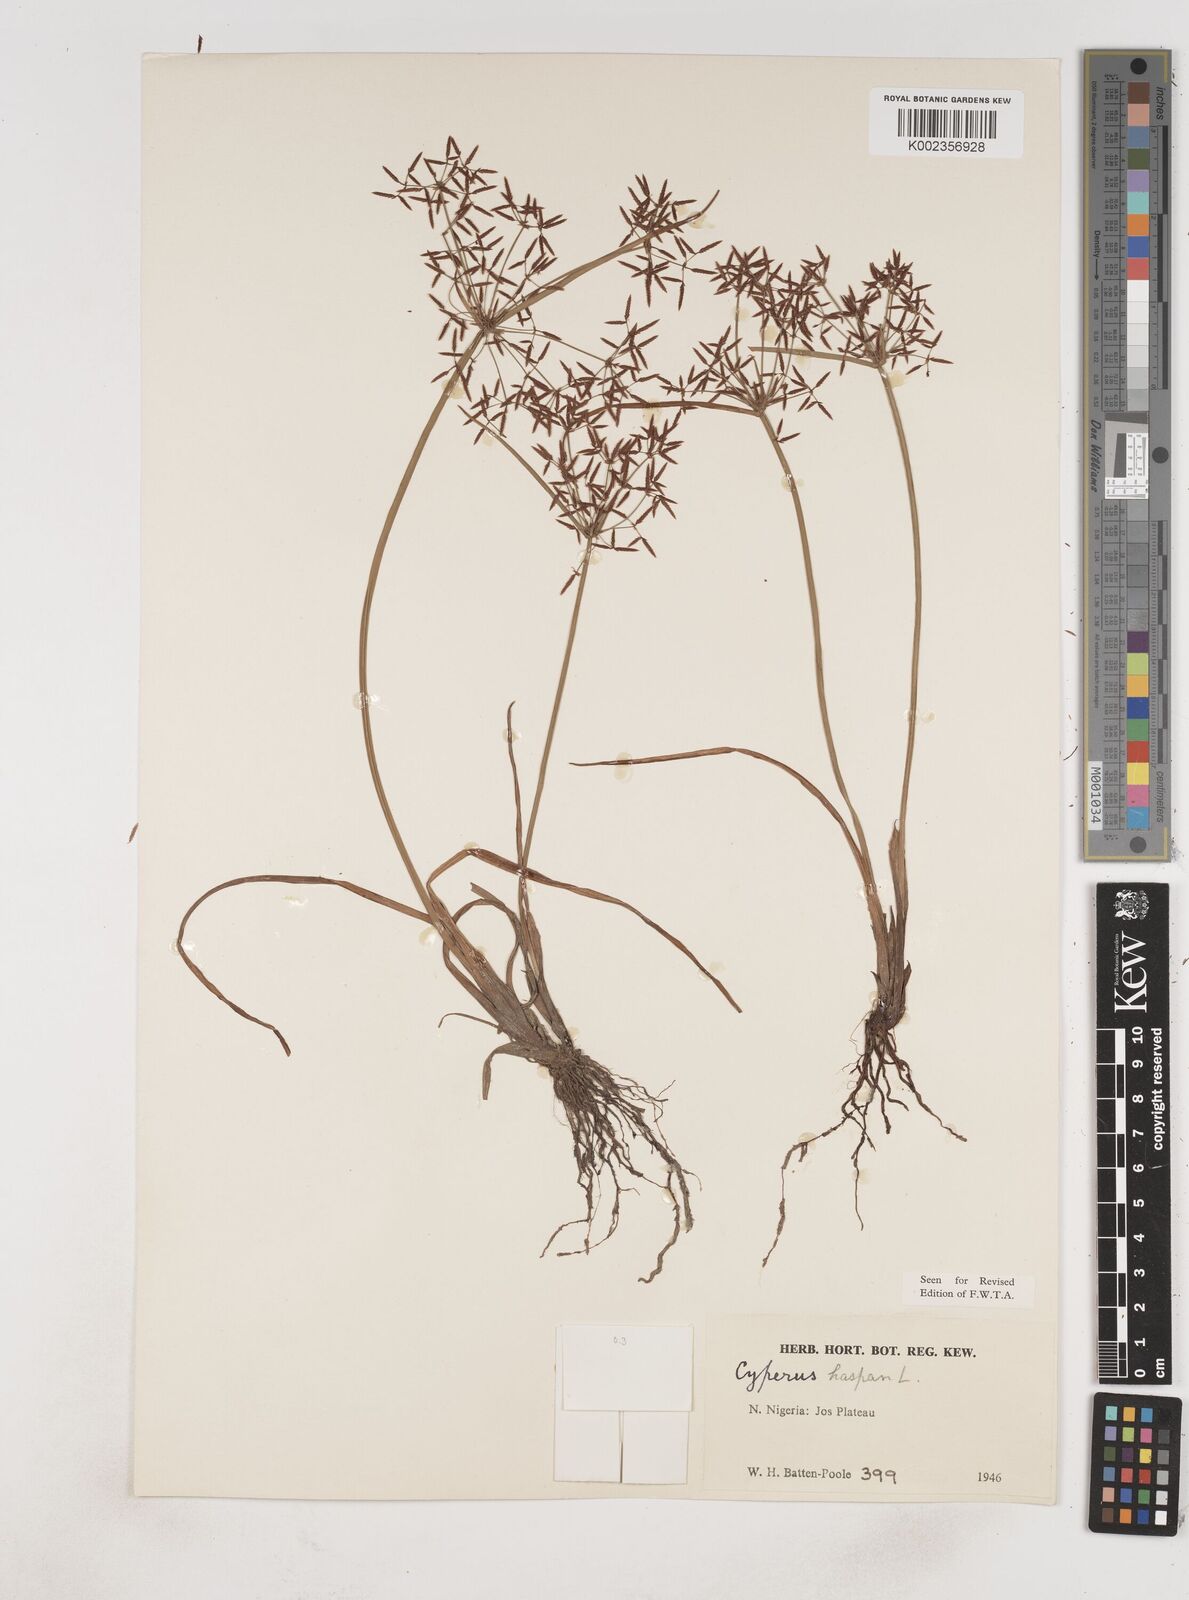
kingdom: Plantae
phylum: Tracheophyta
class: Liliopsida
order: Poales
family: Cyperaceae
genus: Cyperus
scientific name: Cyperus haspan
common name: Haspan flatsedge
